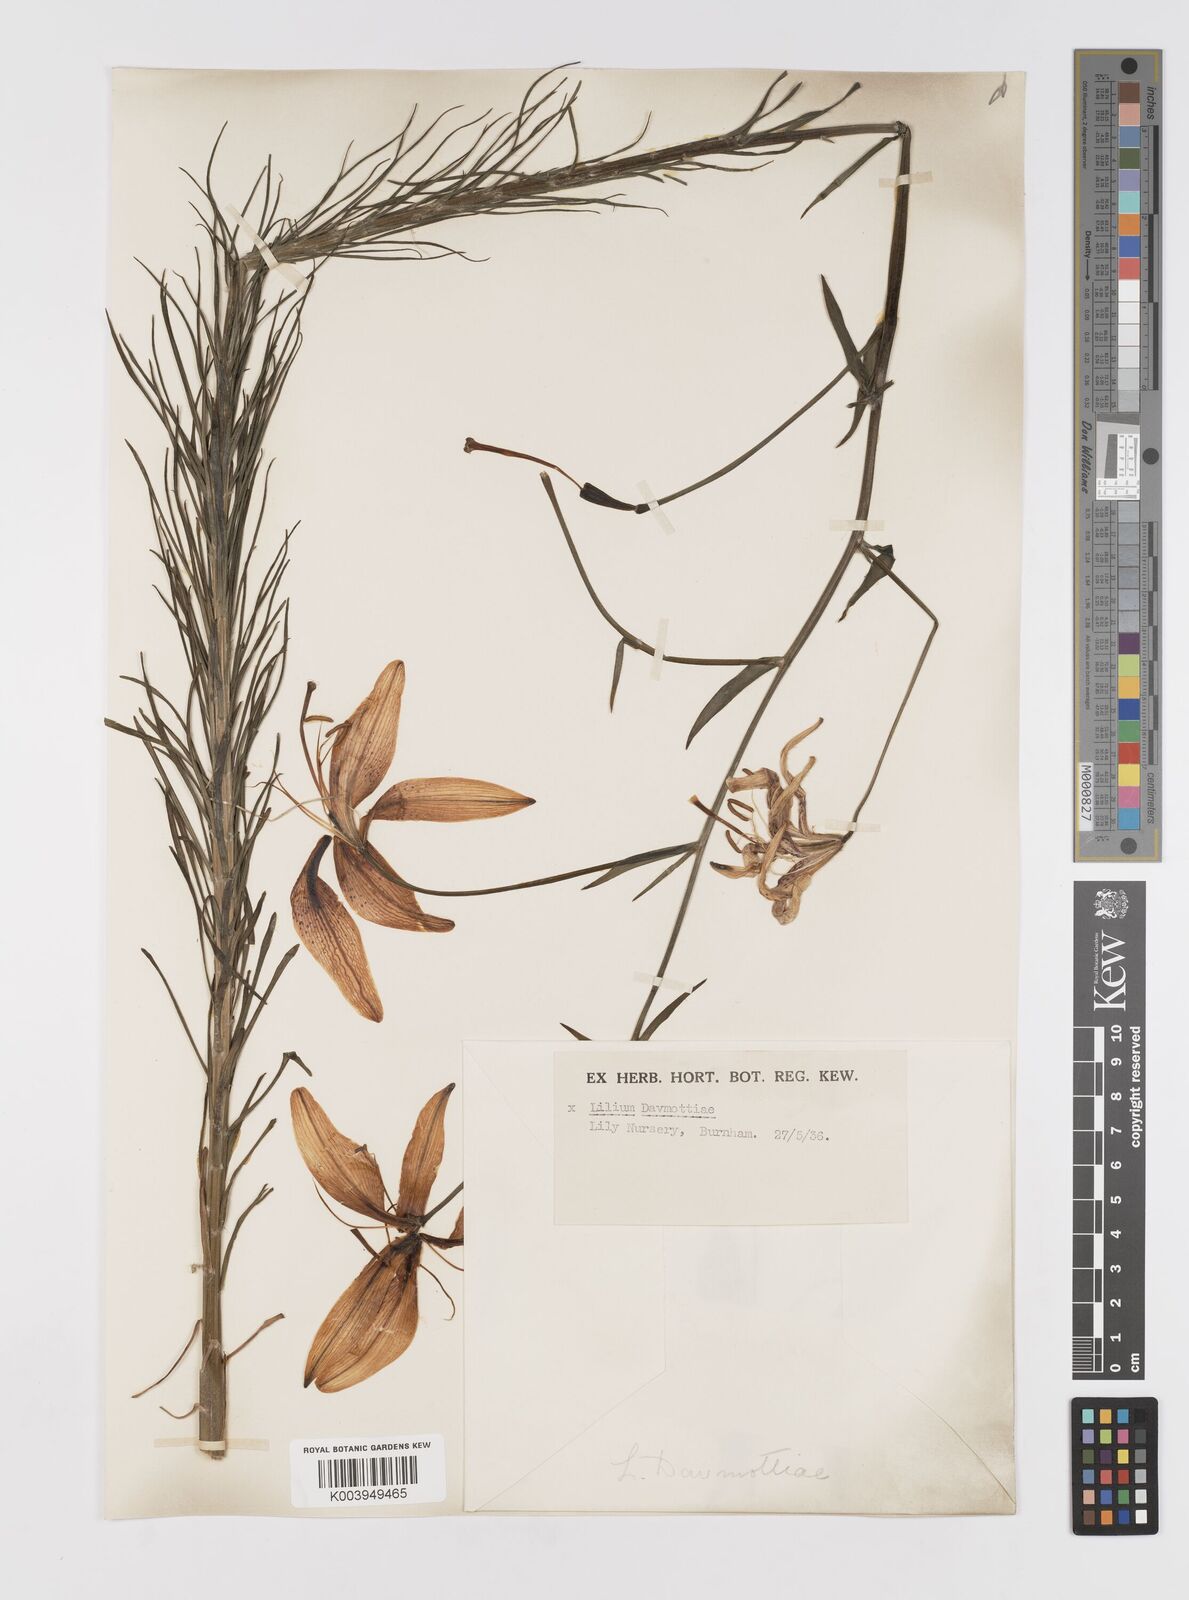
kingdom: Plantae
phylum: Tracheophyta
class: Liliopsida
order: Liliales
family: Liliaceae
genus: Lilium
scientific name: Lilium
